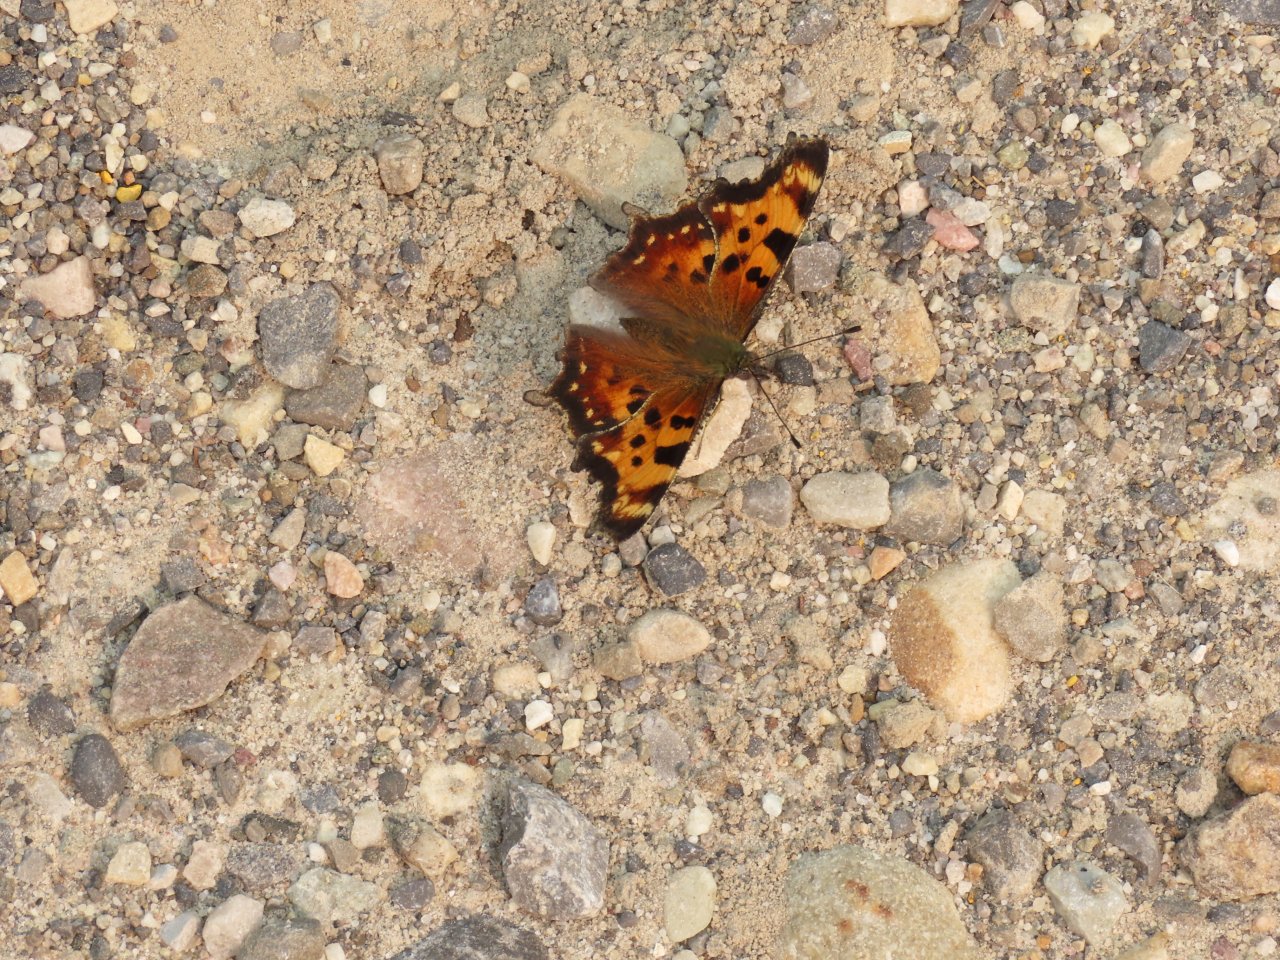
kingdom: Animalia
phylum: Arthropoda
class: Insecta
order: Lepidoptera
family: Nymphalidae
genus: Polygonia
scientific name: Polygonia faunus
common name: Green Comma
